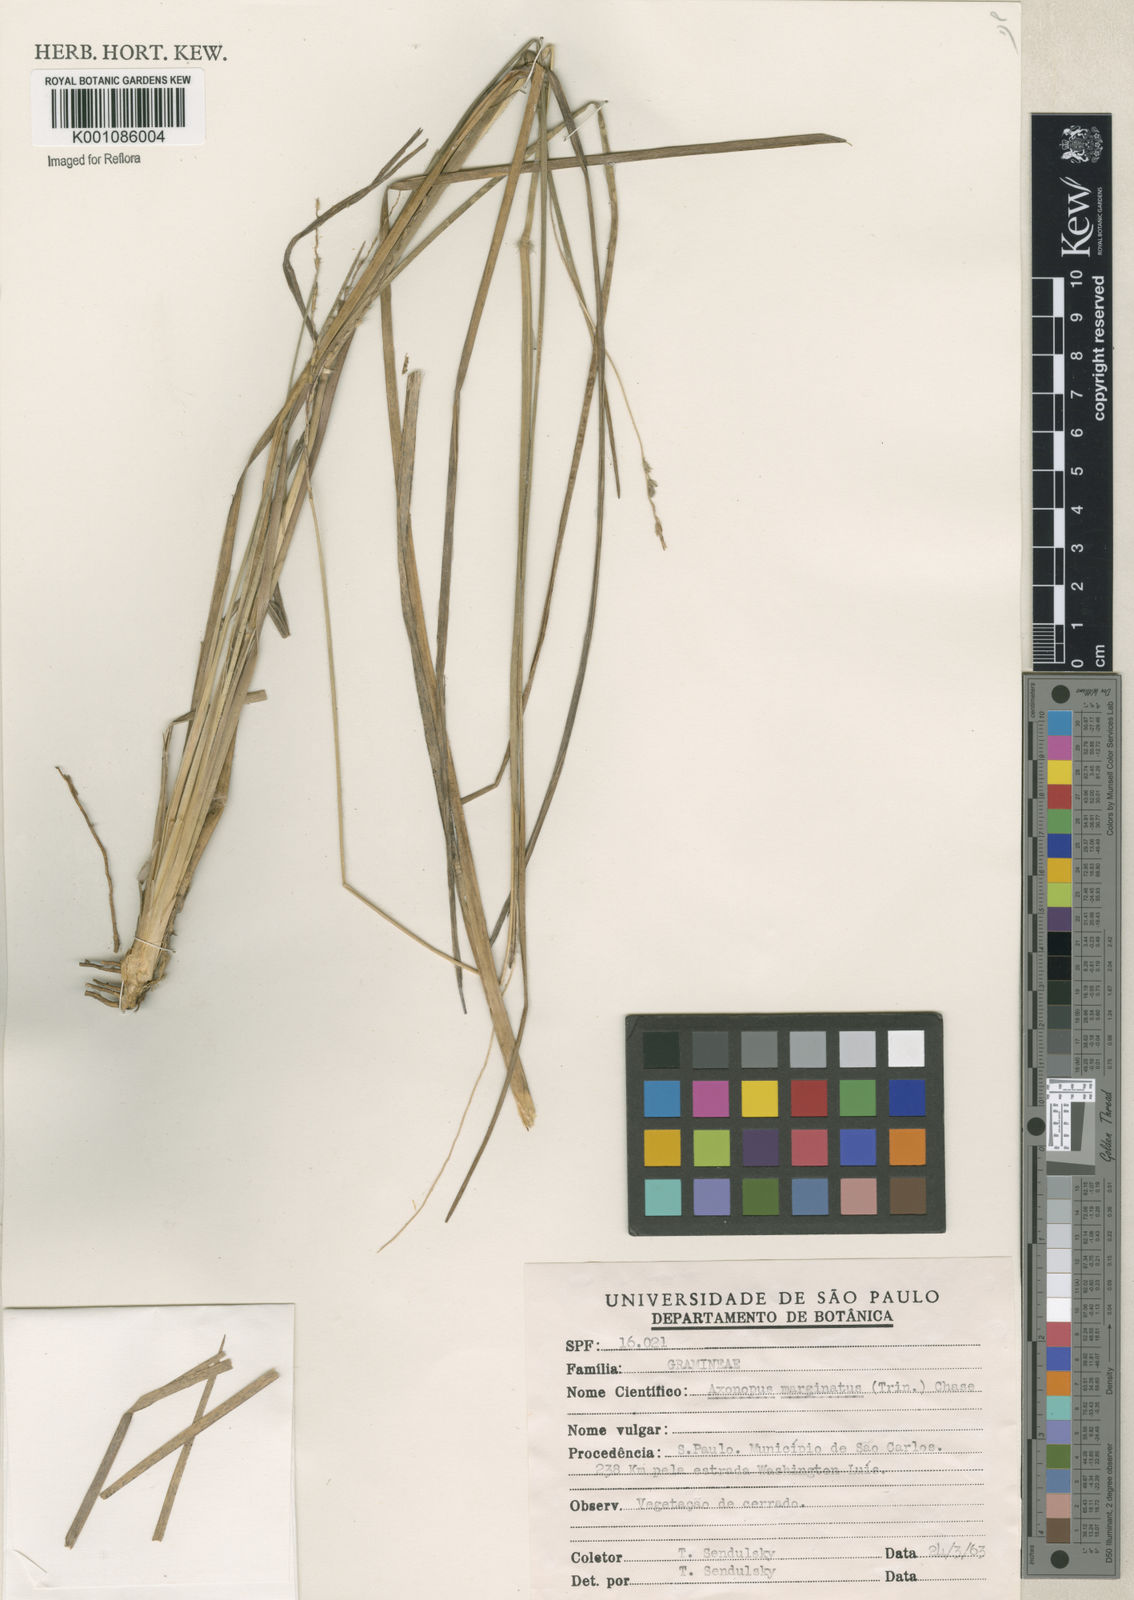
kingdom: Plantae
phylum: Tracheophyta
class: Liliopsida
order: Poales
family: Poaceae
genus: Axonopus
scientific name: Axonopus
